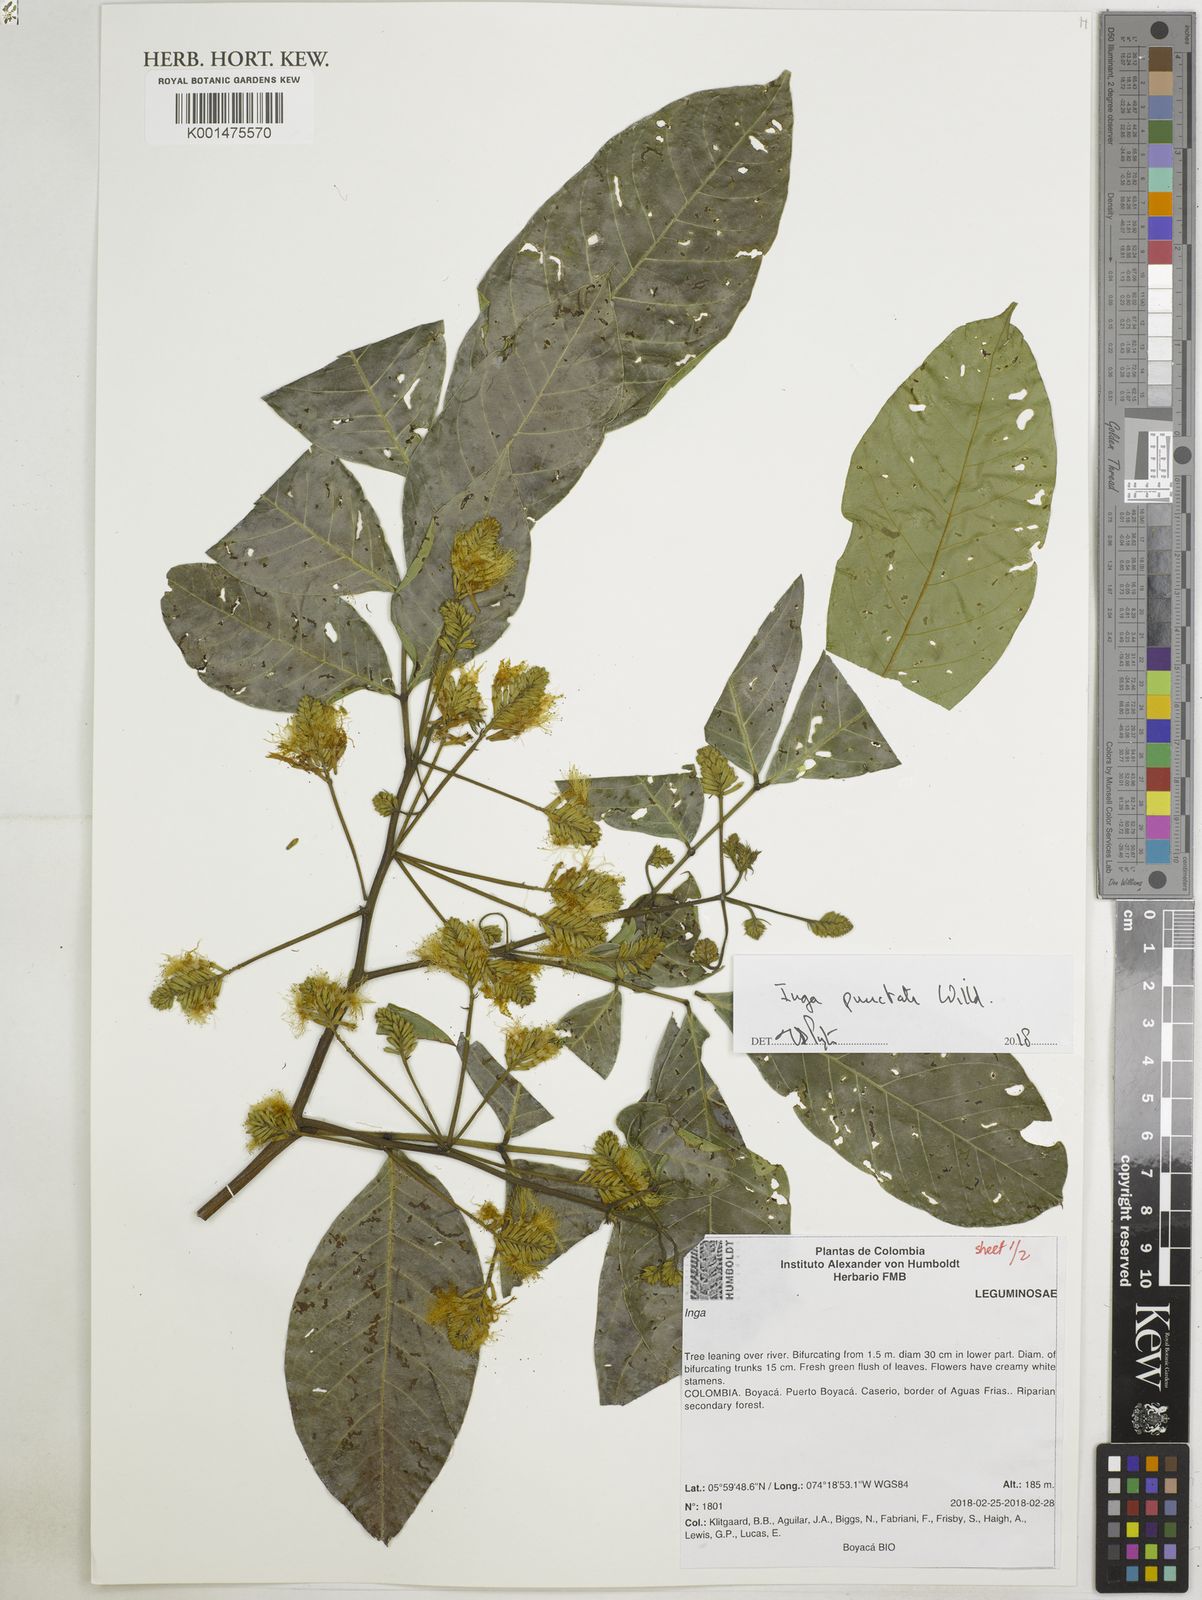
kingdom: Plantae
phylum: Tracheophyta
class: Magnoliopsida
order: Fabales
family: Fabaceae
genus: Inga
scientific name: Inga punctata
